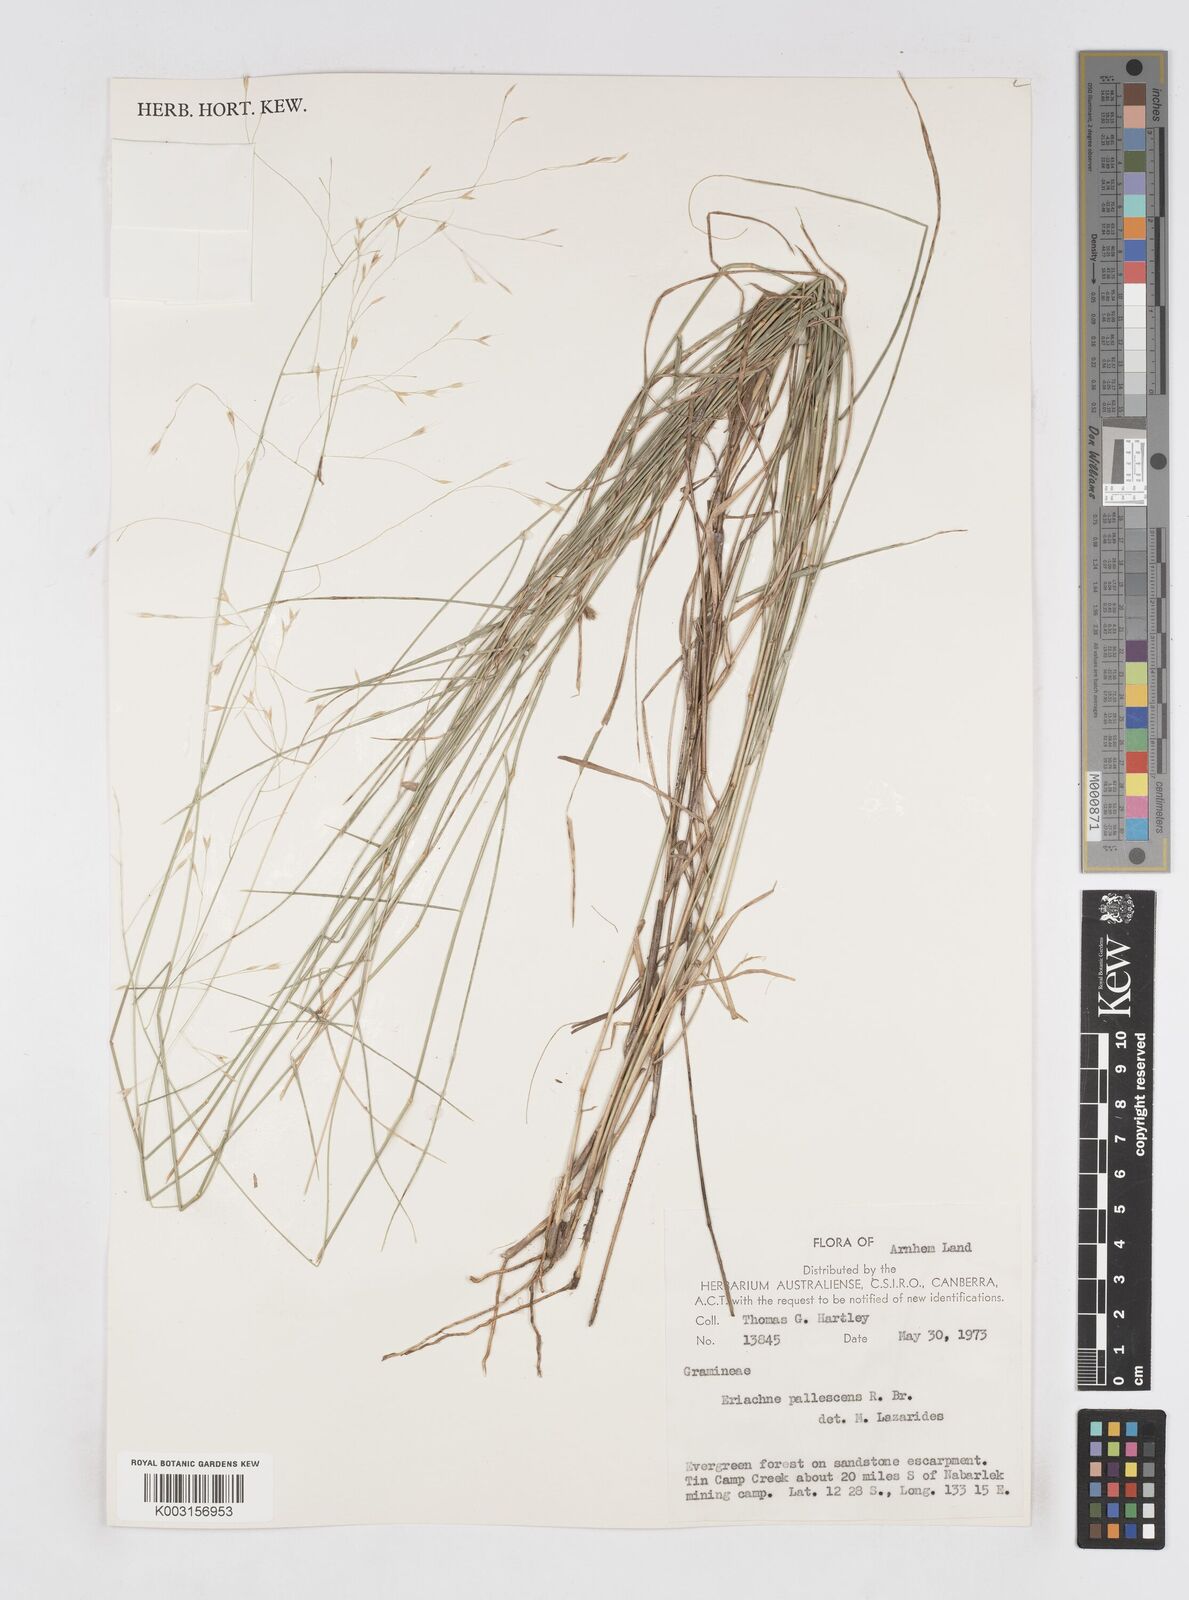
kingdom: Plantae
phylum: Tracheophyta
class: Liliopsida
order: Poales
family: Poaceae
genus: Eriachne
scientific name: Eriachne pallescens
